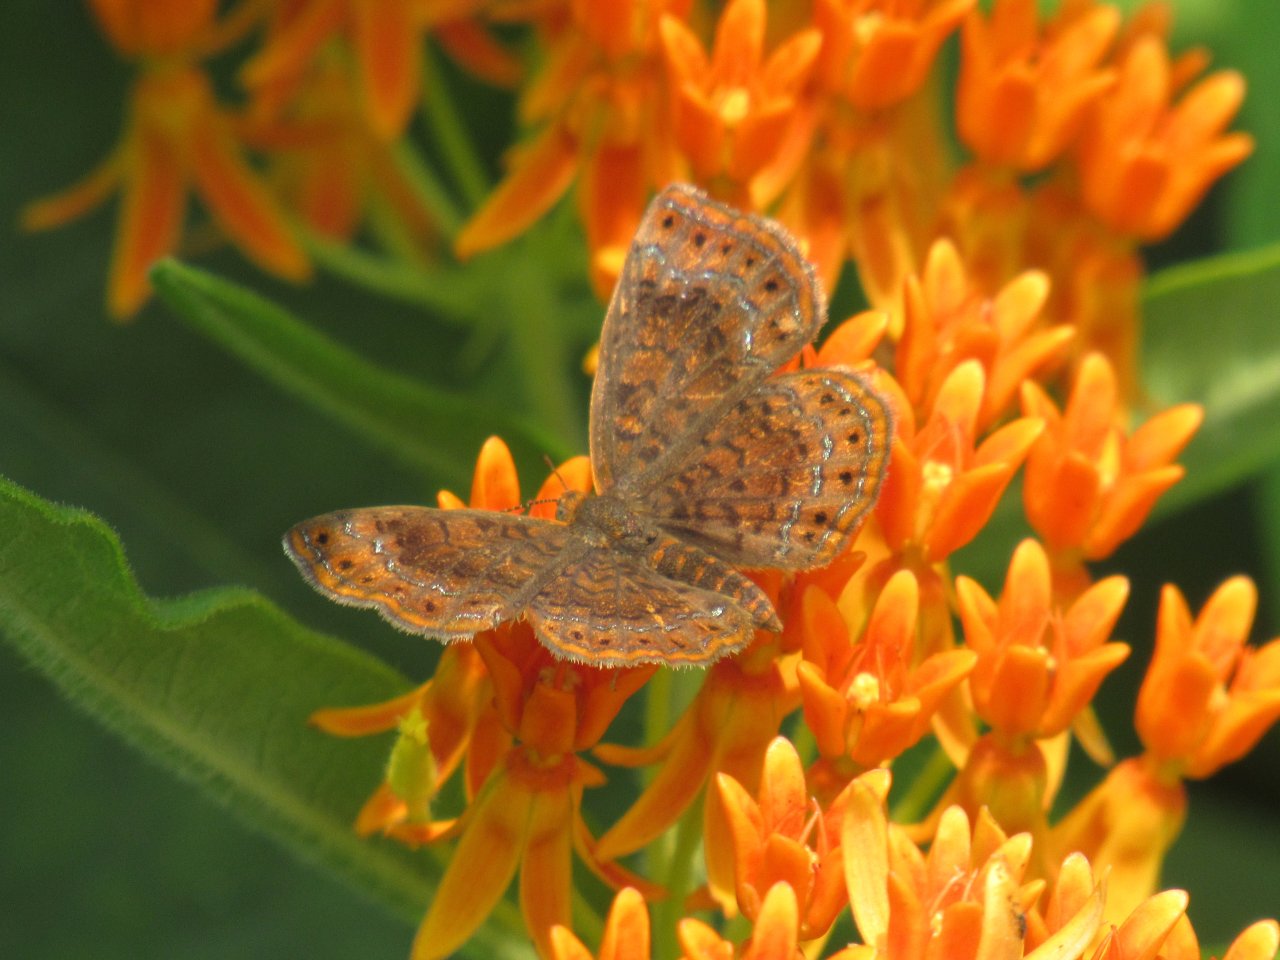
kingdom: Animalia
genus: Calephelis
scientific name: Calephelis borealis
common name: Northern Metalmark
